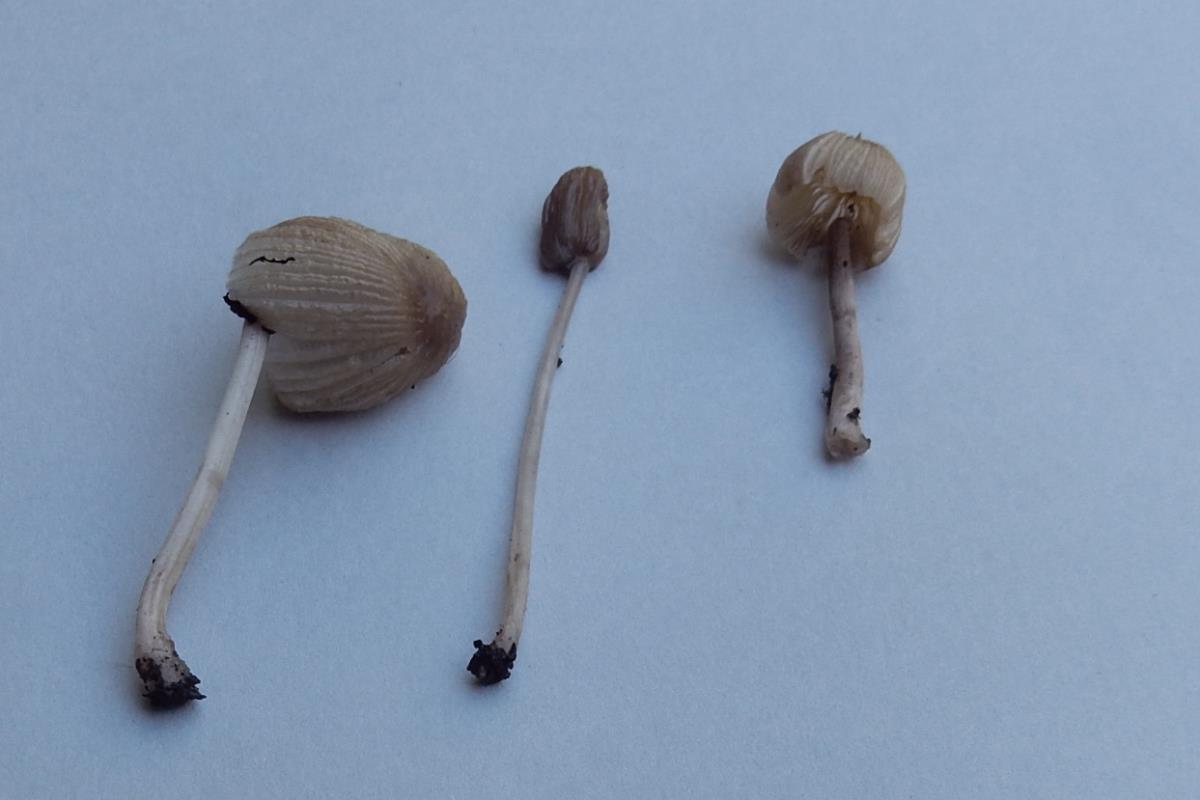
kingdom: Fungi
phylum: Basidiomycota
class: Agaricomycetes
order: Agaricales
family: Psathyrellaceae
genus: Parasola
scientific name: Parasola kuehneri
